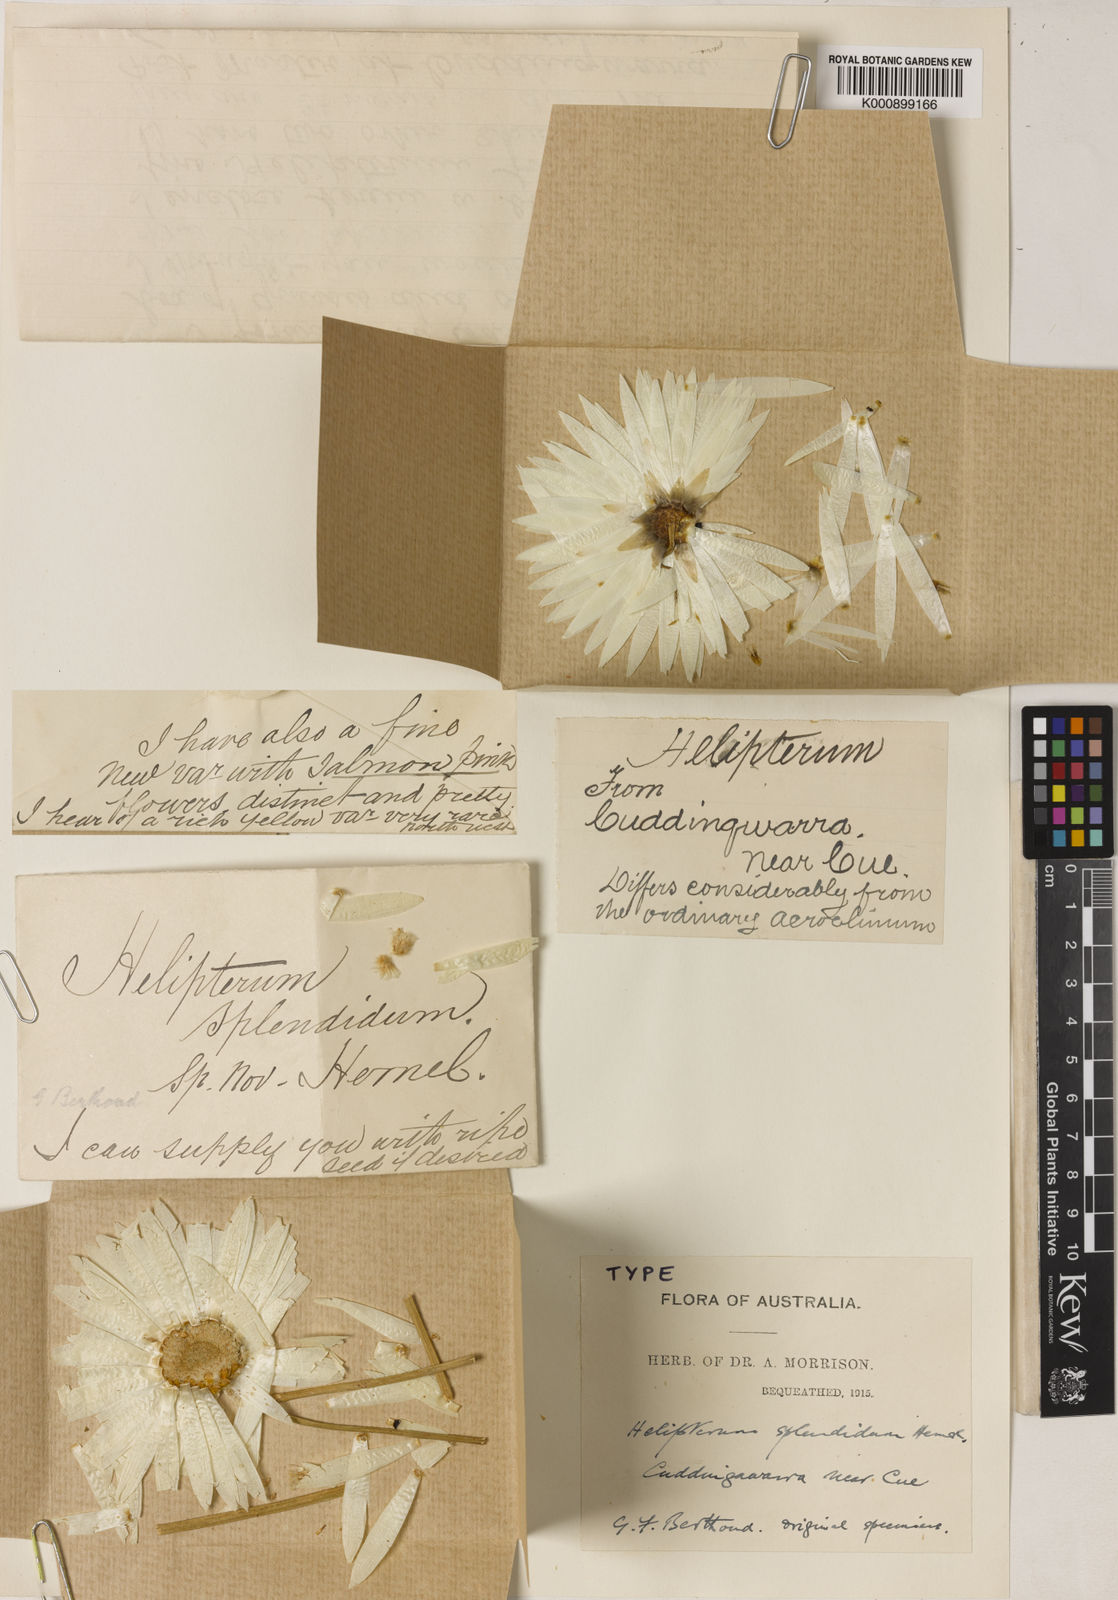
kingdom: Plantae
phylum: Tracheophyta
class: Magnoliopsida
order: Asterales
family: Asteraceae
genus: Rhodanthe
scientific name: Rhodanthe chlorocephala
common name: Rosy sunray
